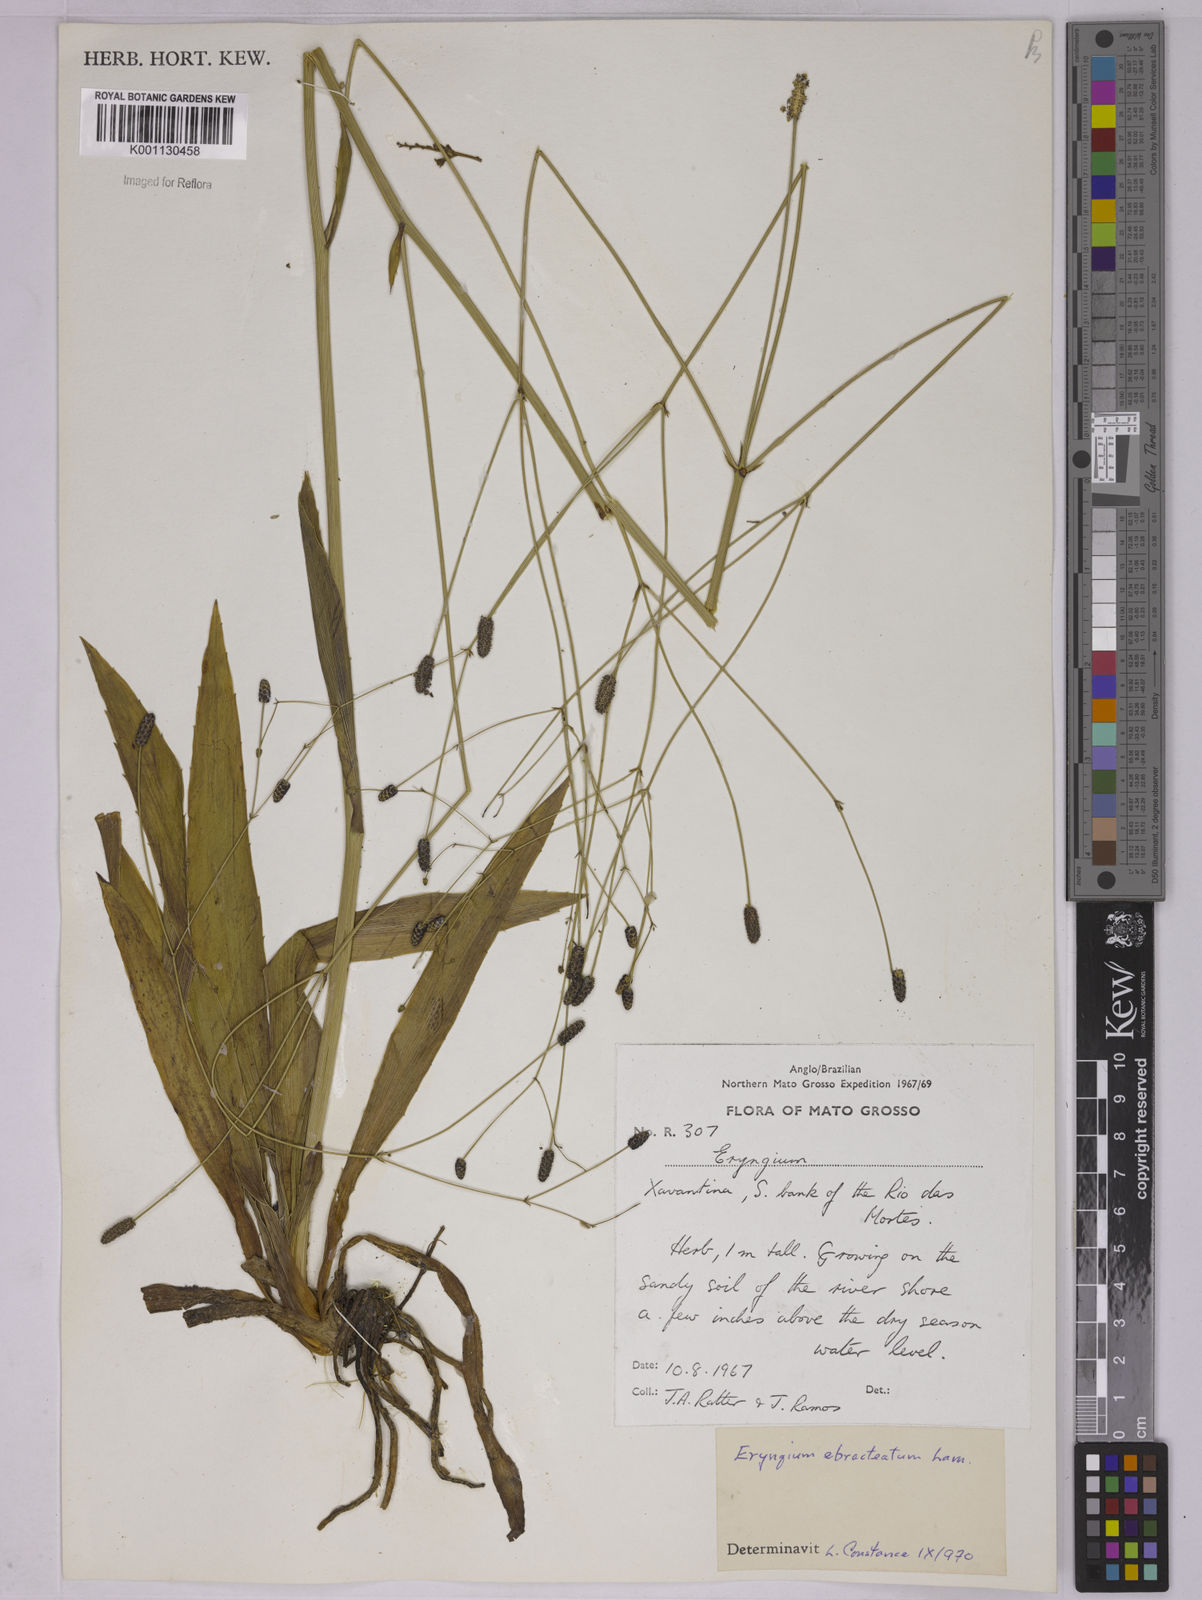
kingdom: Plantae
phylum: Tracheophyta
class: Magnoliopsida
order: Apiales
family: Apiaceae
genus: Eryngium
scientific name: Eryngium ebracteatum
